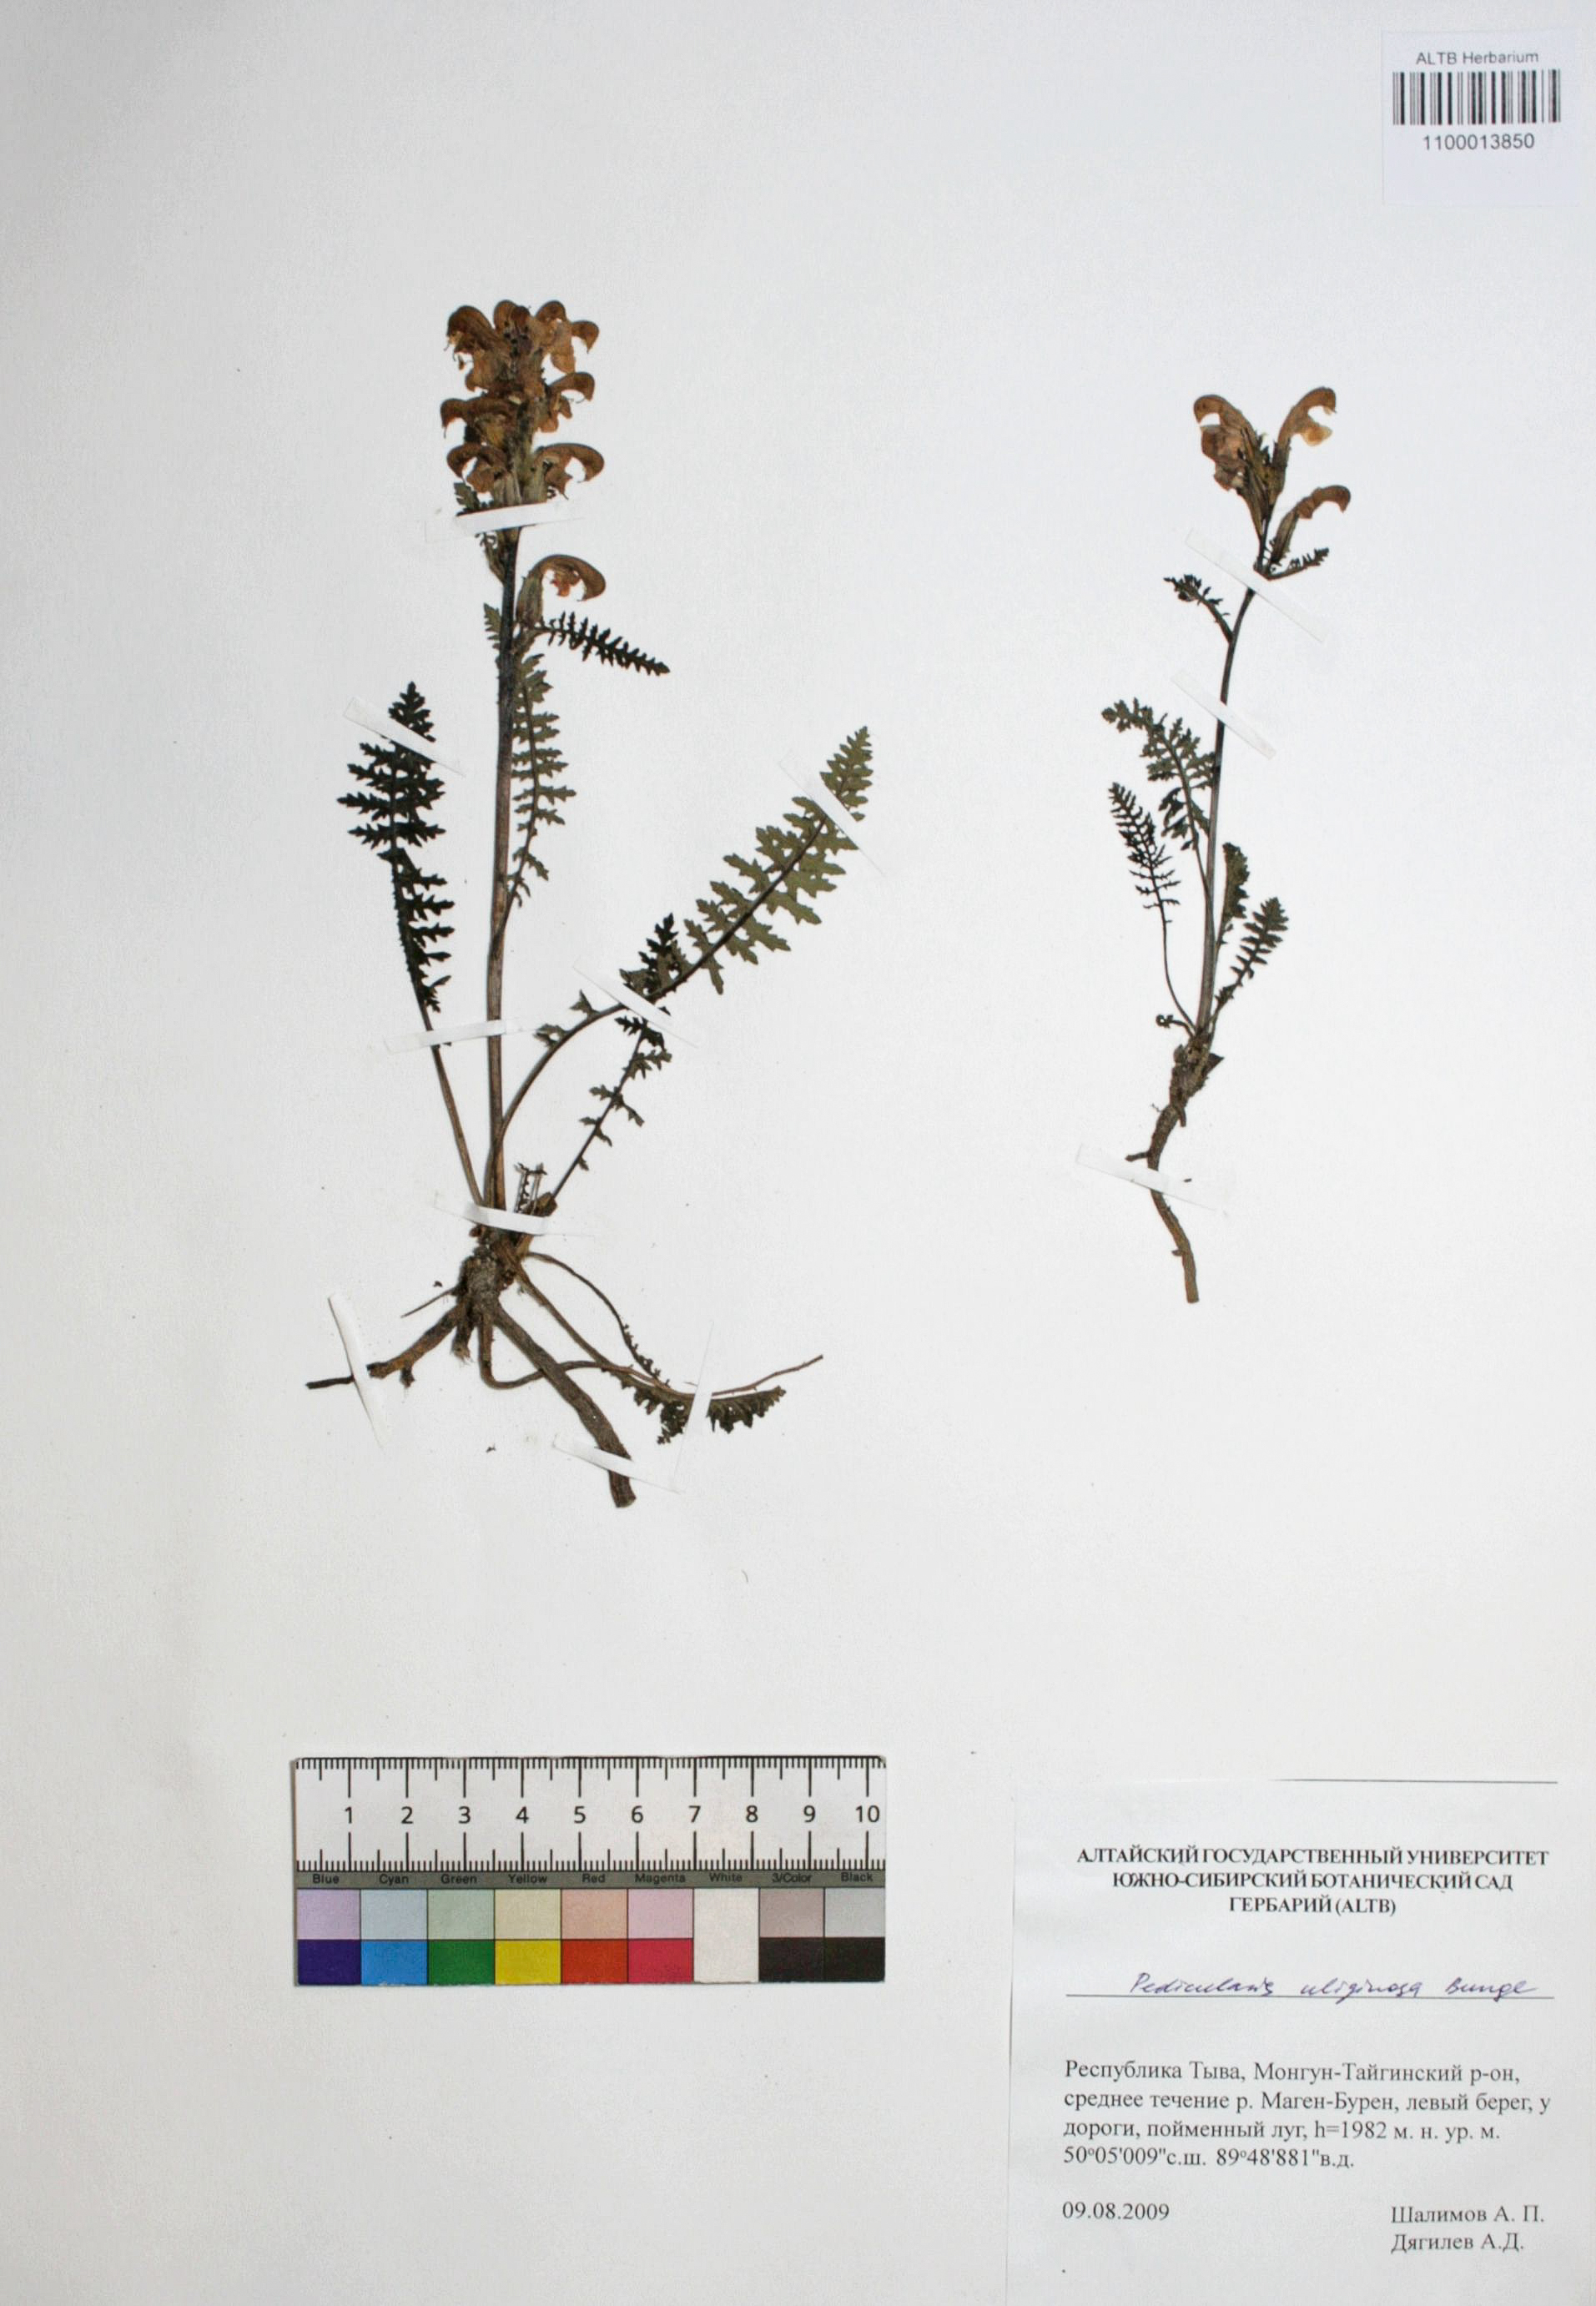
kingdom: Plantae
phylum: Tracheophyta
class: Magnoliopsida
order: Lamiales
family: Orobanchaceae
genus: Pedicularis
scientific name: Pedicularis uliginosa
